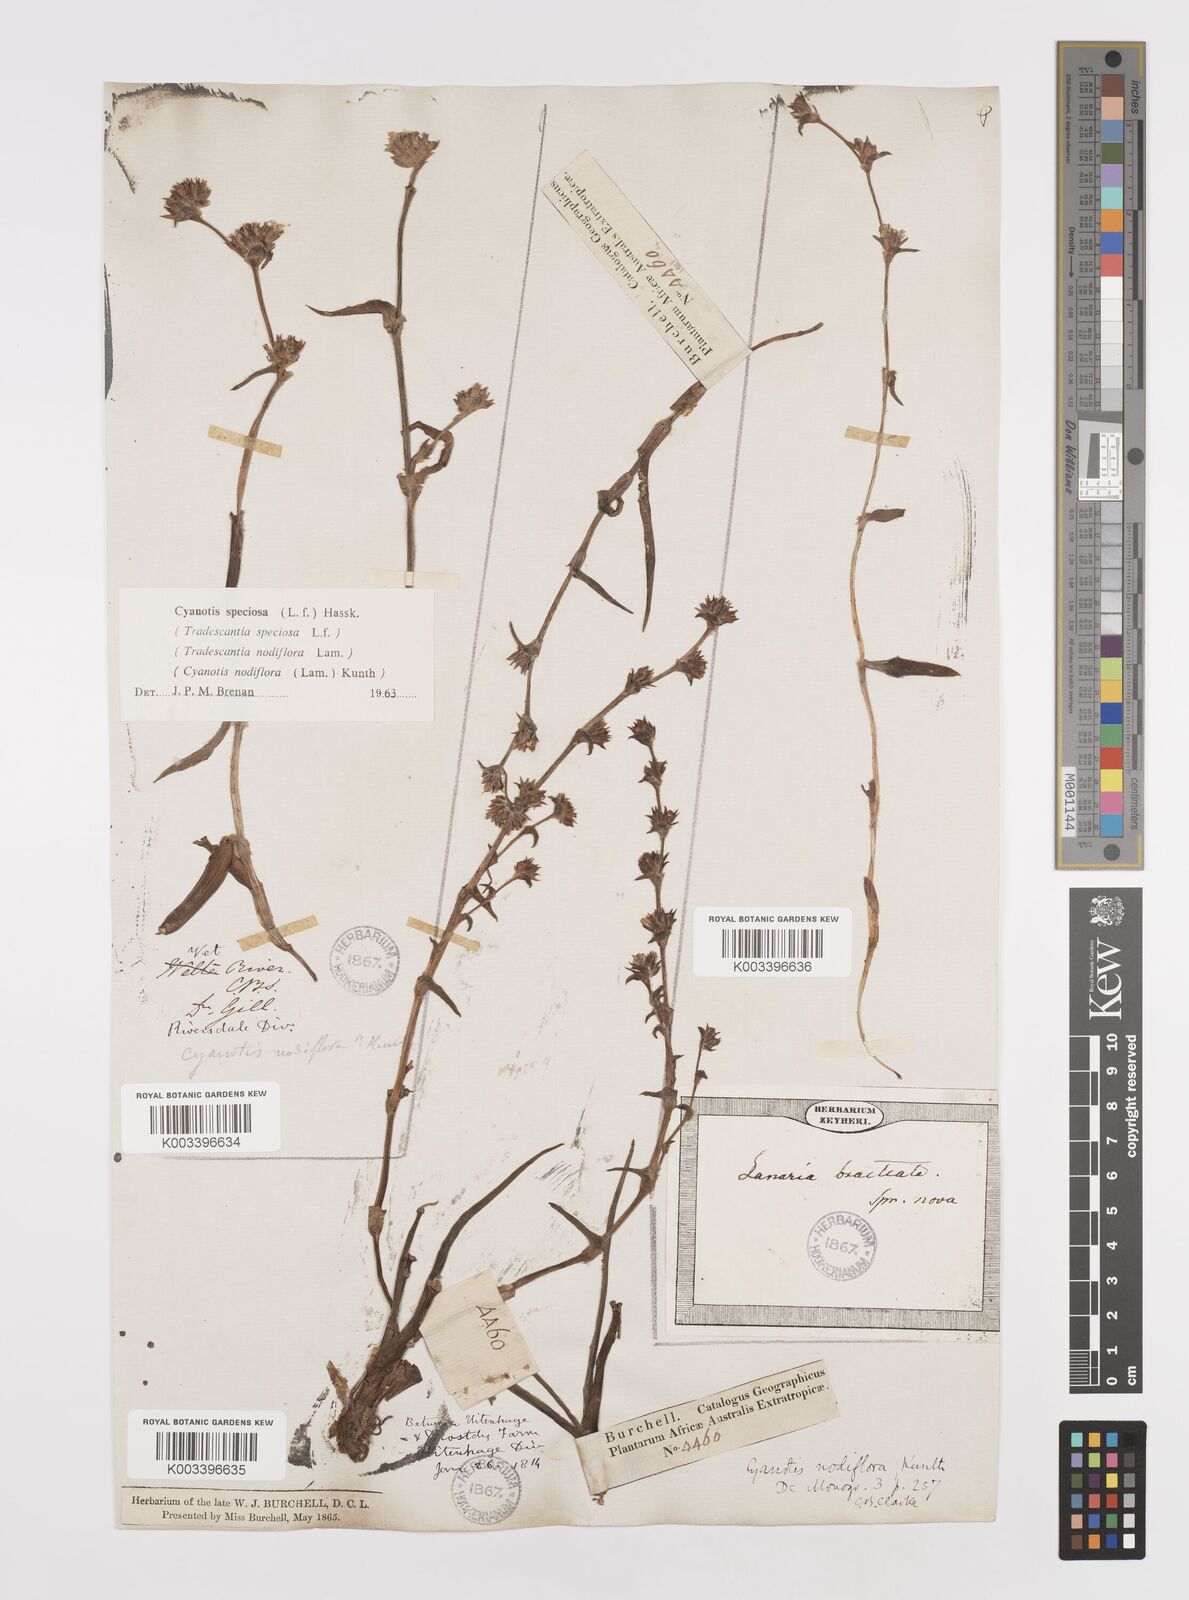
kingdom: Plantae
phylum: Tracheophyta
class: Liliopsida
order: Commelinales
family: Commelinaceae
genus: Cyanotis
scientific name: Cyanotis speciosa
